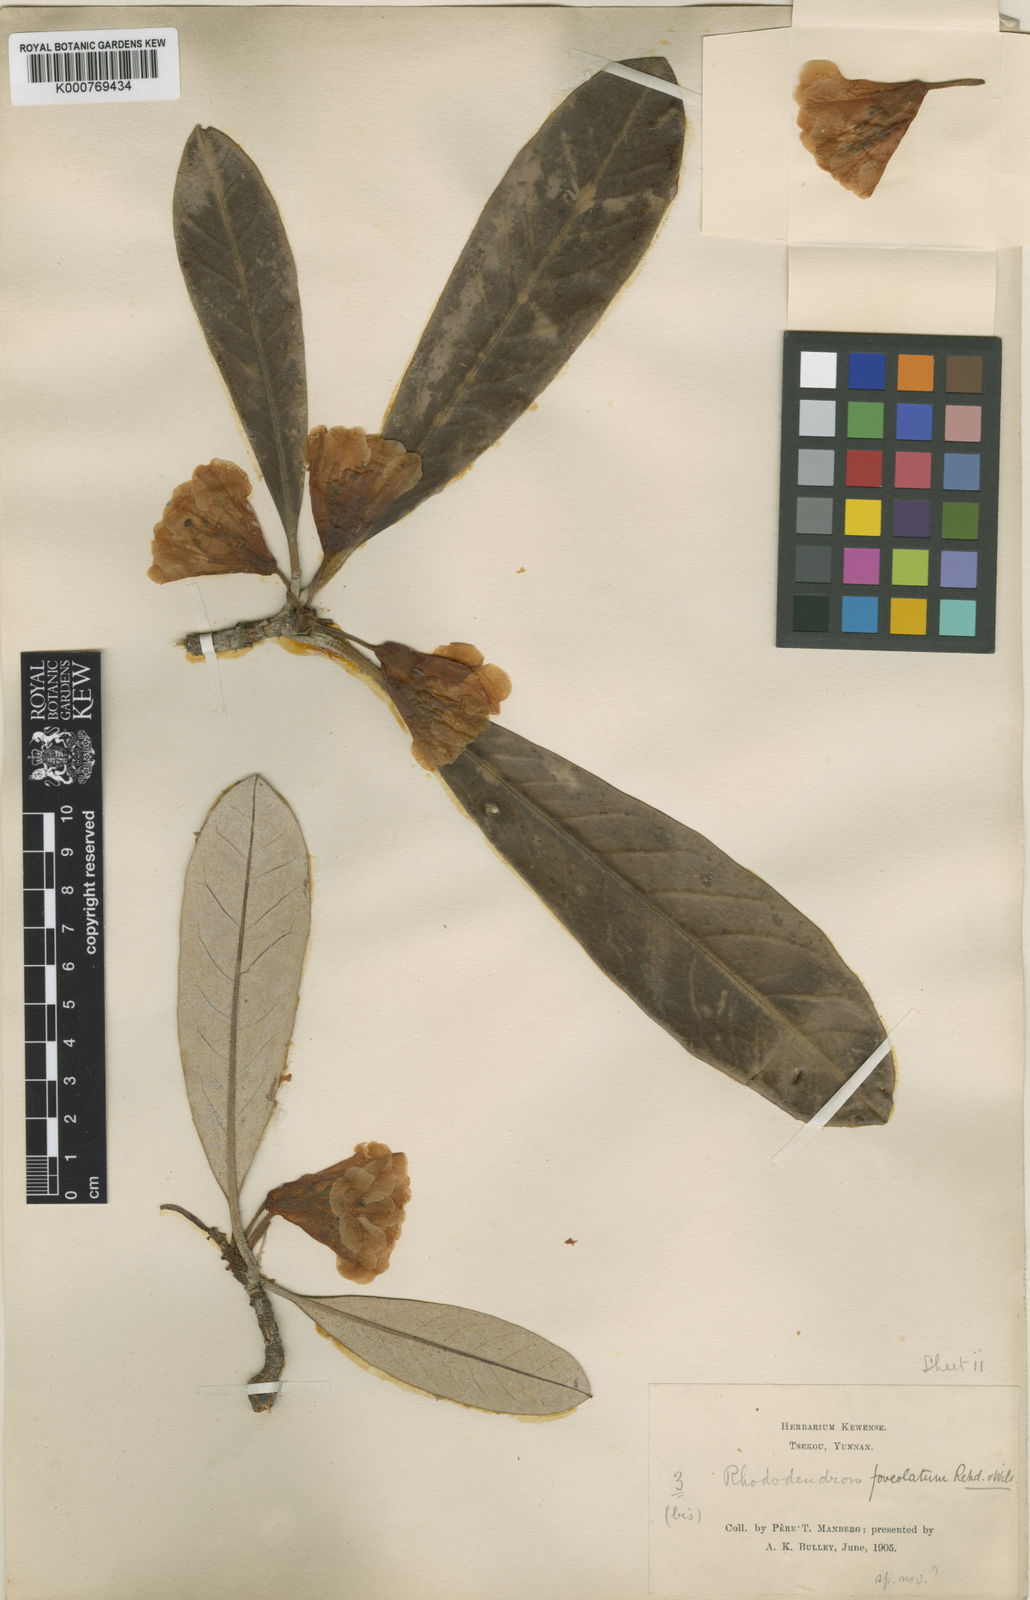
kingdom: Plantae
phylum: Tracheophyta
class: Magnoliopsida
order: Ericales
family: Ericaceae
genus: Rhododendron
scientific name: Rhododendron coriaceum
